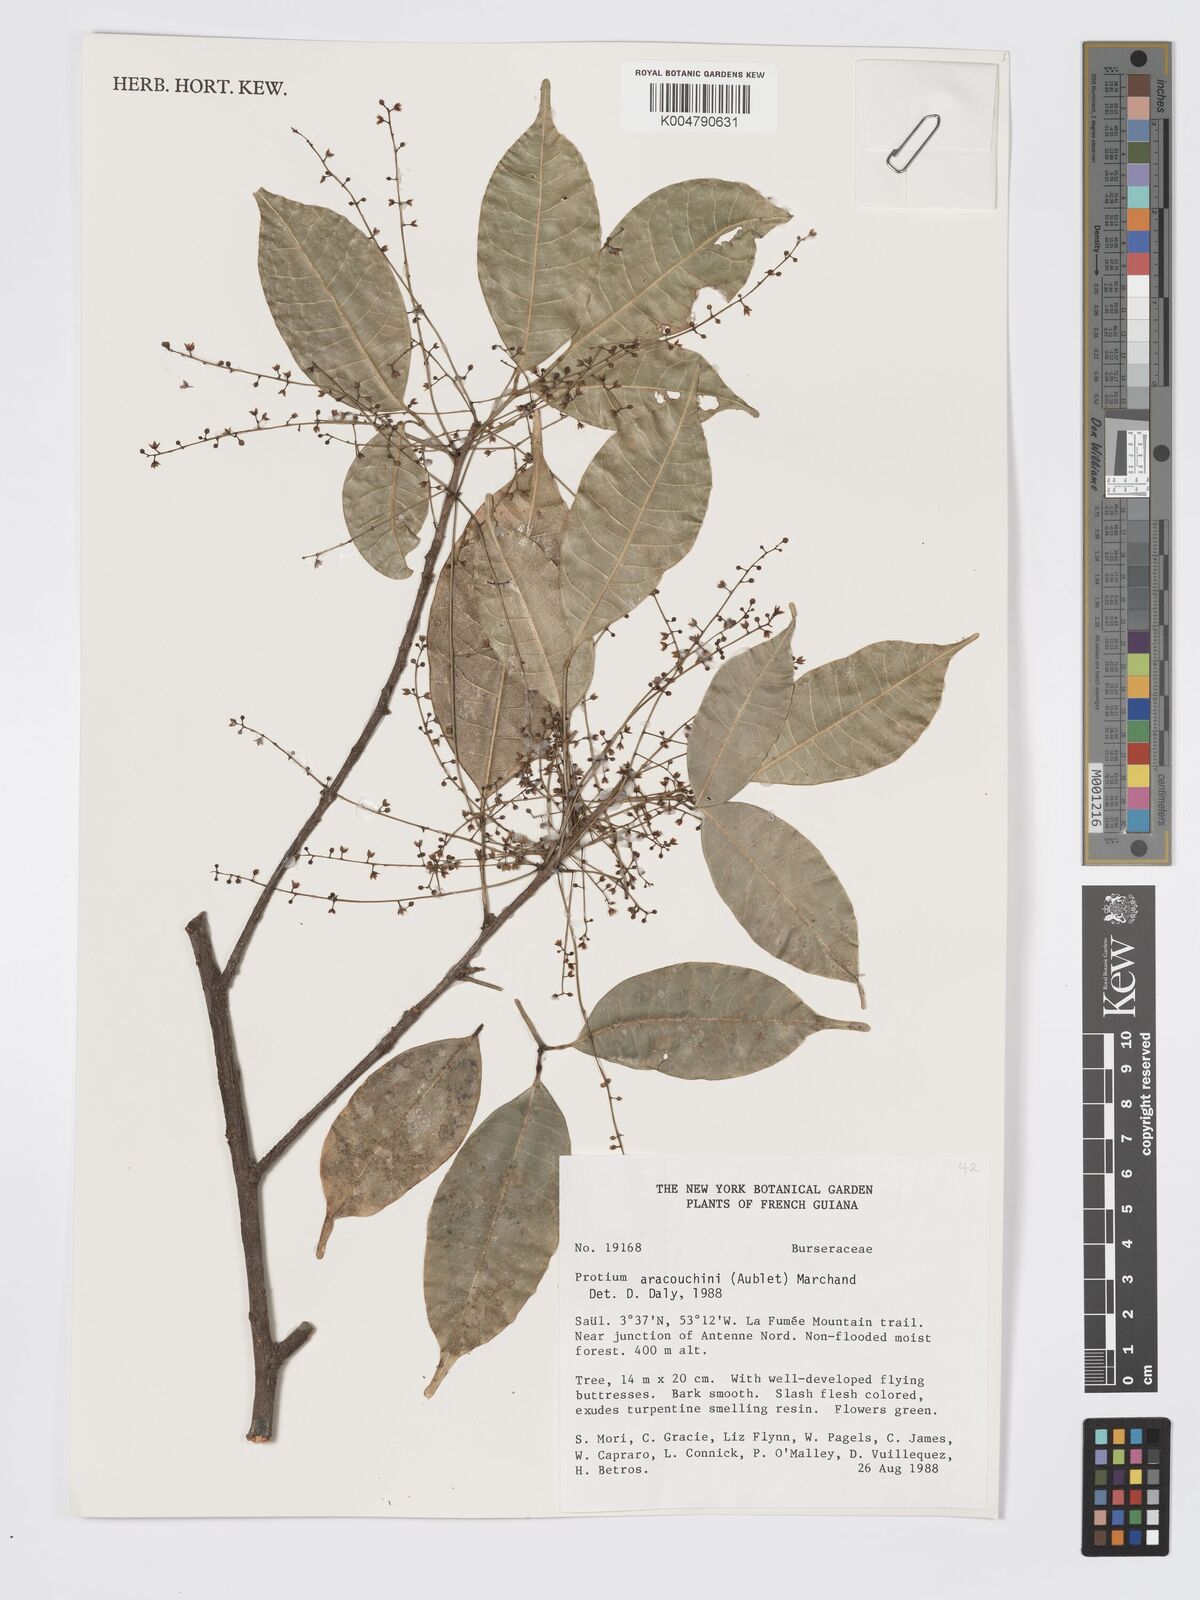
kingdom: Plantae
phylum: Tracheophyta
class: Magnoliopsida
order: Sapindales
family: Burseraceae
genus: Protium
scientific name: Protium aracouchini
